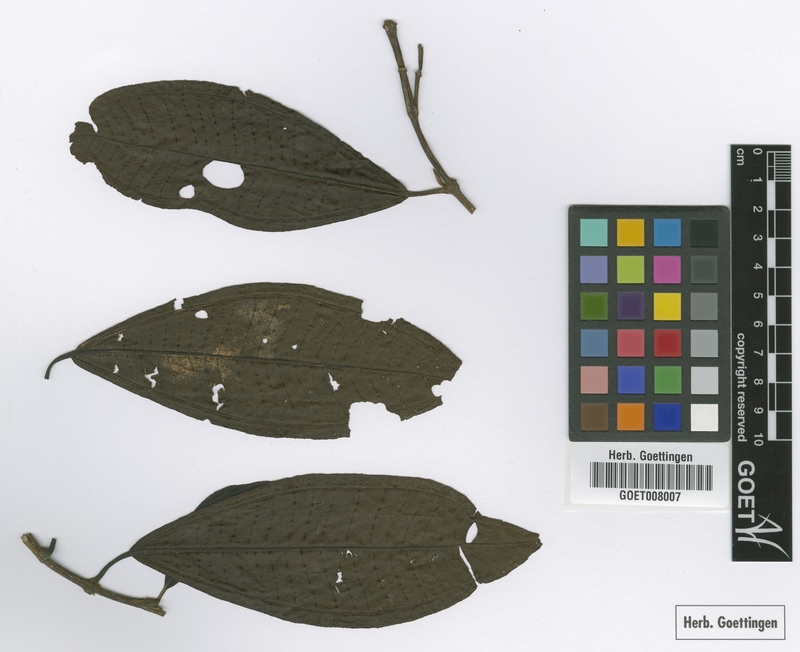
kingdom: Plantae
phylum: Tracheophyta
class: Magnoliopsida
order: Myrtales
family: Melastomataceae
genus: Miconia
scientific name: Miconia notabilis
